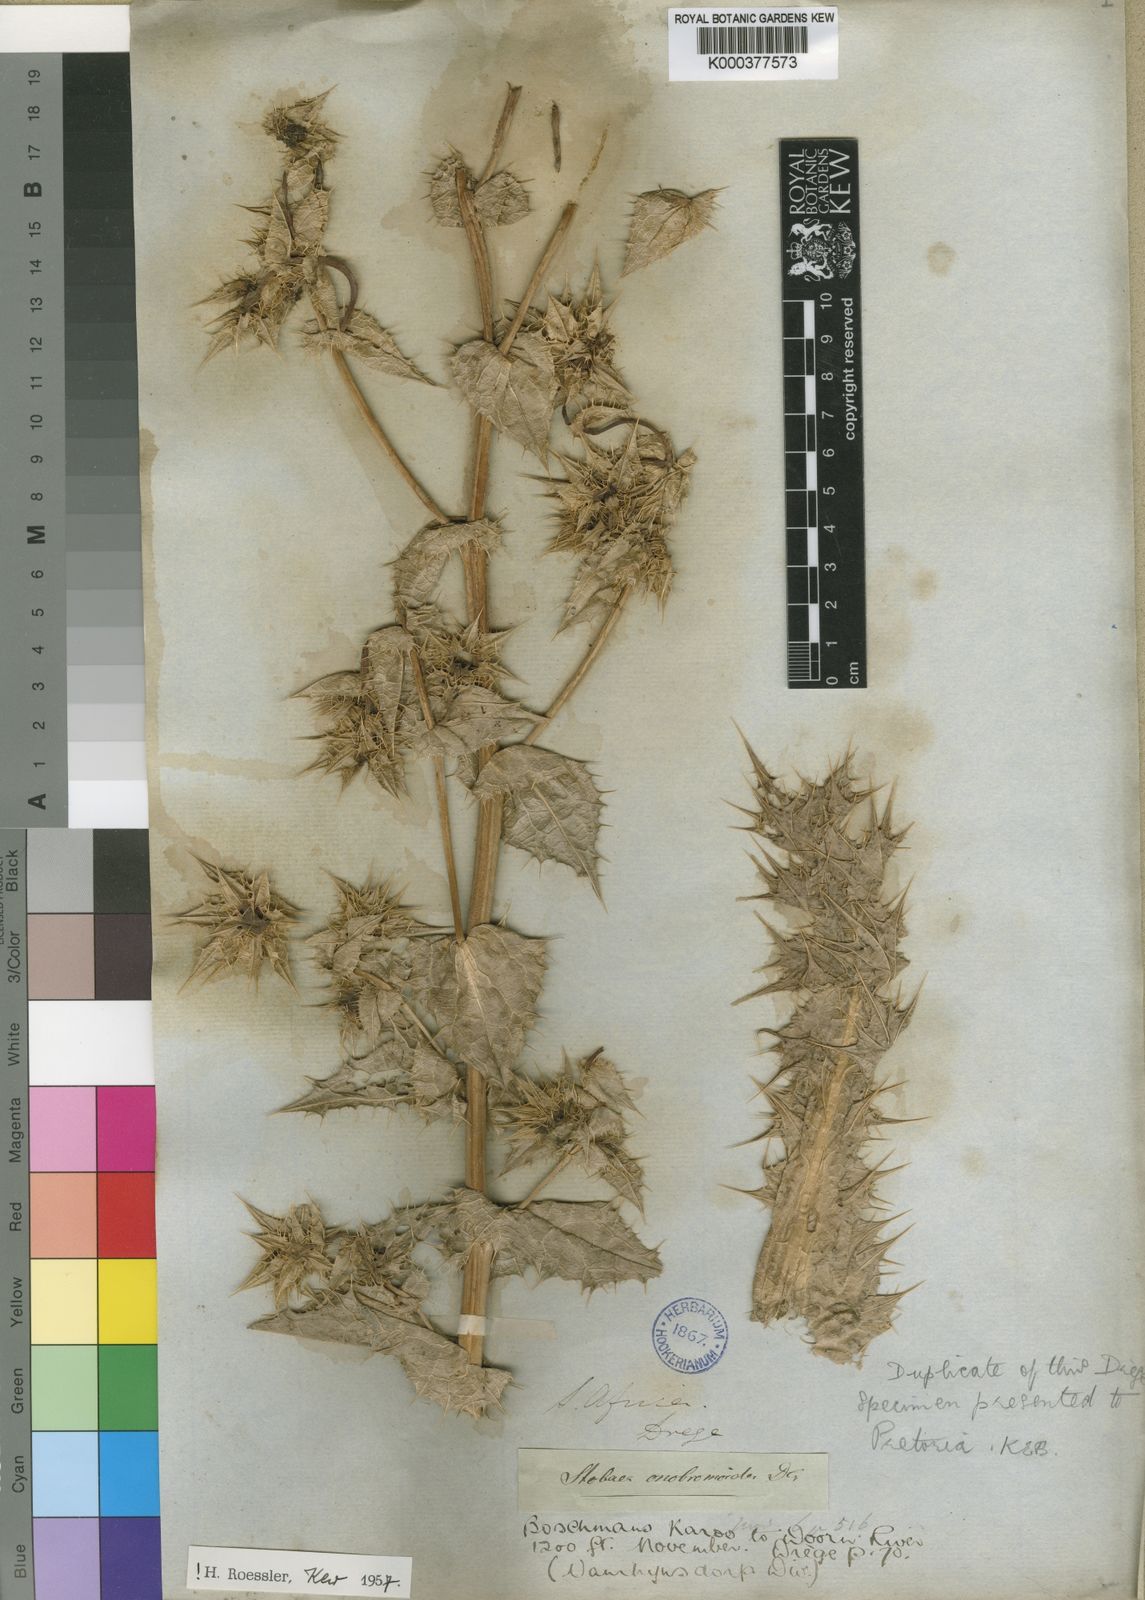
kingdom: Plantae
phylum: Tracheophyta
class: Magnoliopsida
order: Asterales
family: Asteraceae
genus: Berkheya
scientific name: Berkheya onobromoides
